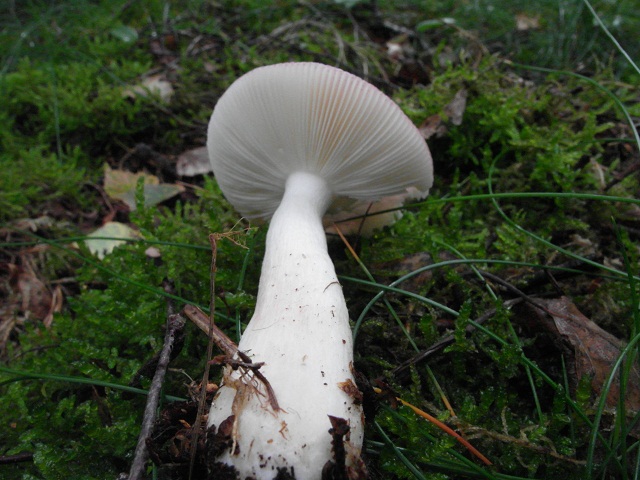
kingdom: Fungi
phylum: Basidiomycota
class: Agaricomycetes
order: Russulales
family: Russulaceae
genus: Russula
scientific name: Russula nitida
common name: året skørhat
